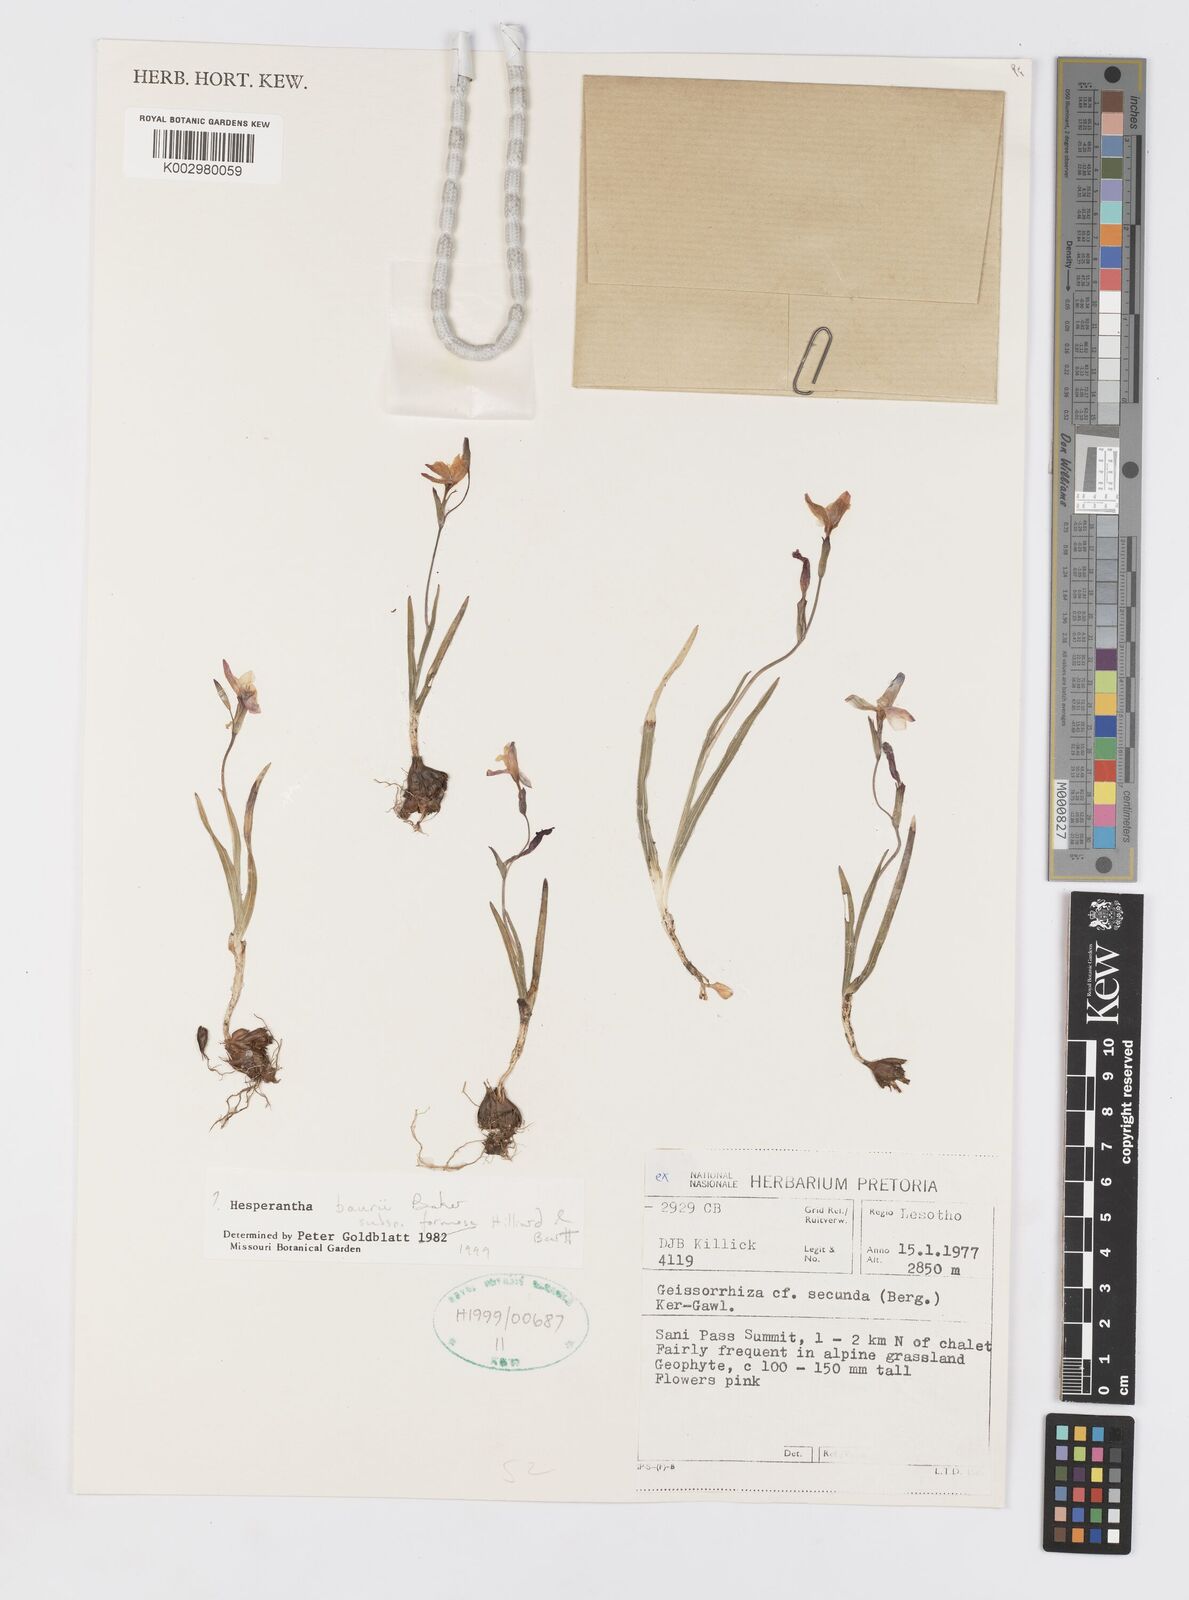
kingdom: Plantae
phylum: Tracheophyta
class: Liliopsida
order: Asparagales
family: Iridaceae
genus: Hesperantha
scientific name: Hesperantha baurii
